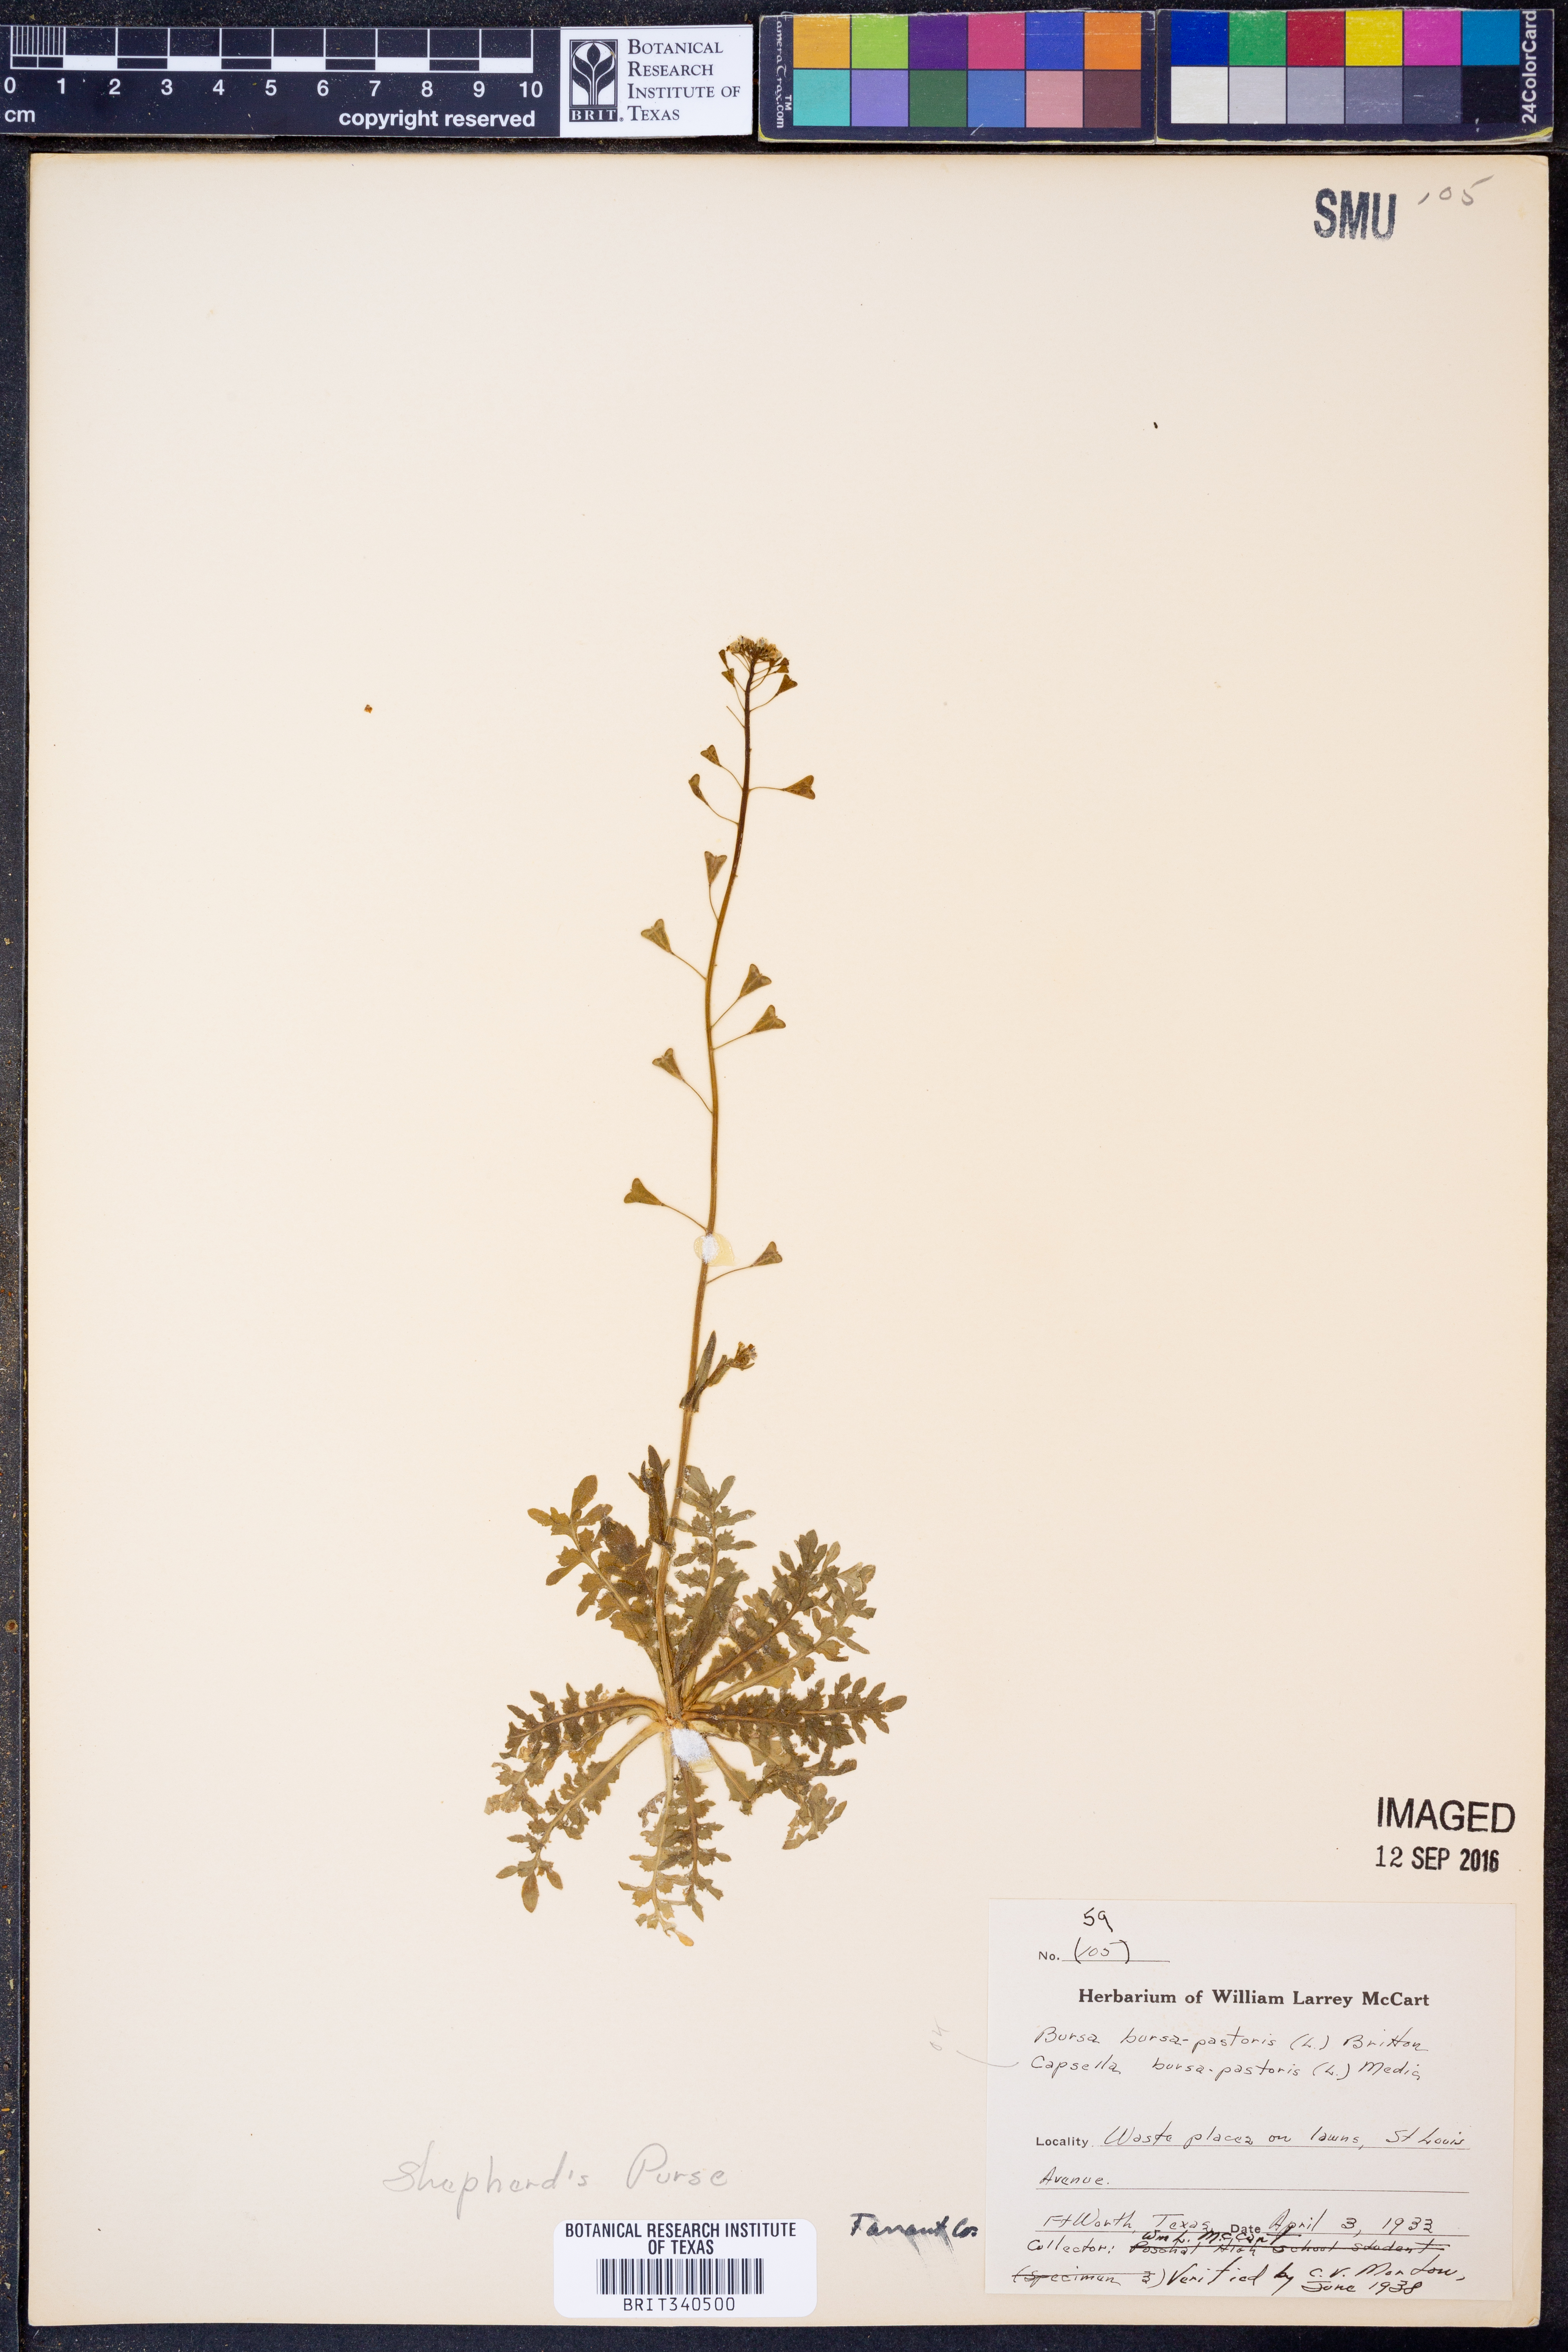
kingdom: Plantae
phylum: Tracheophyta
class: Magnoliopsida
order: Brassicales
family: Brassicaceae
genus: Capsella
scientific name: Capsella bursa-pastoris
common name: Shepherd's purse
